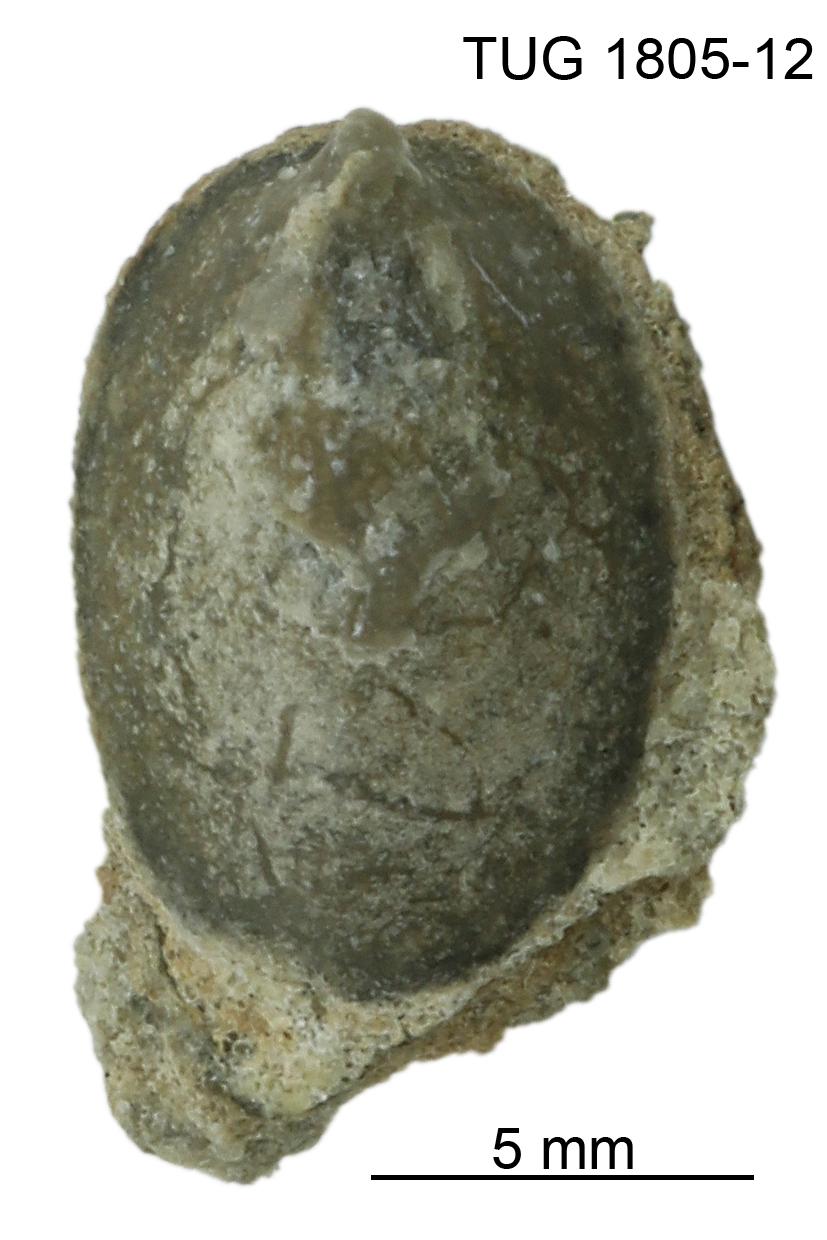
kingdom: Animalia
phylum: Mollusca
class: Gastropoda
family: Archinacellidae
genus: Archinacella
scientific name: Archinacella Metoptoma melissa
